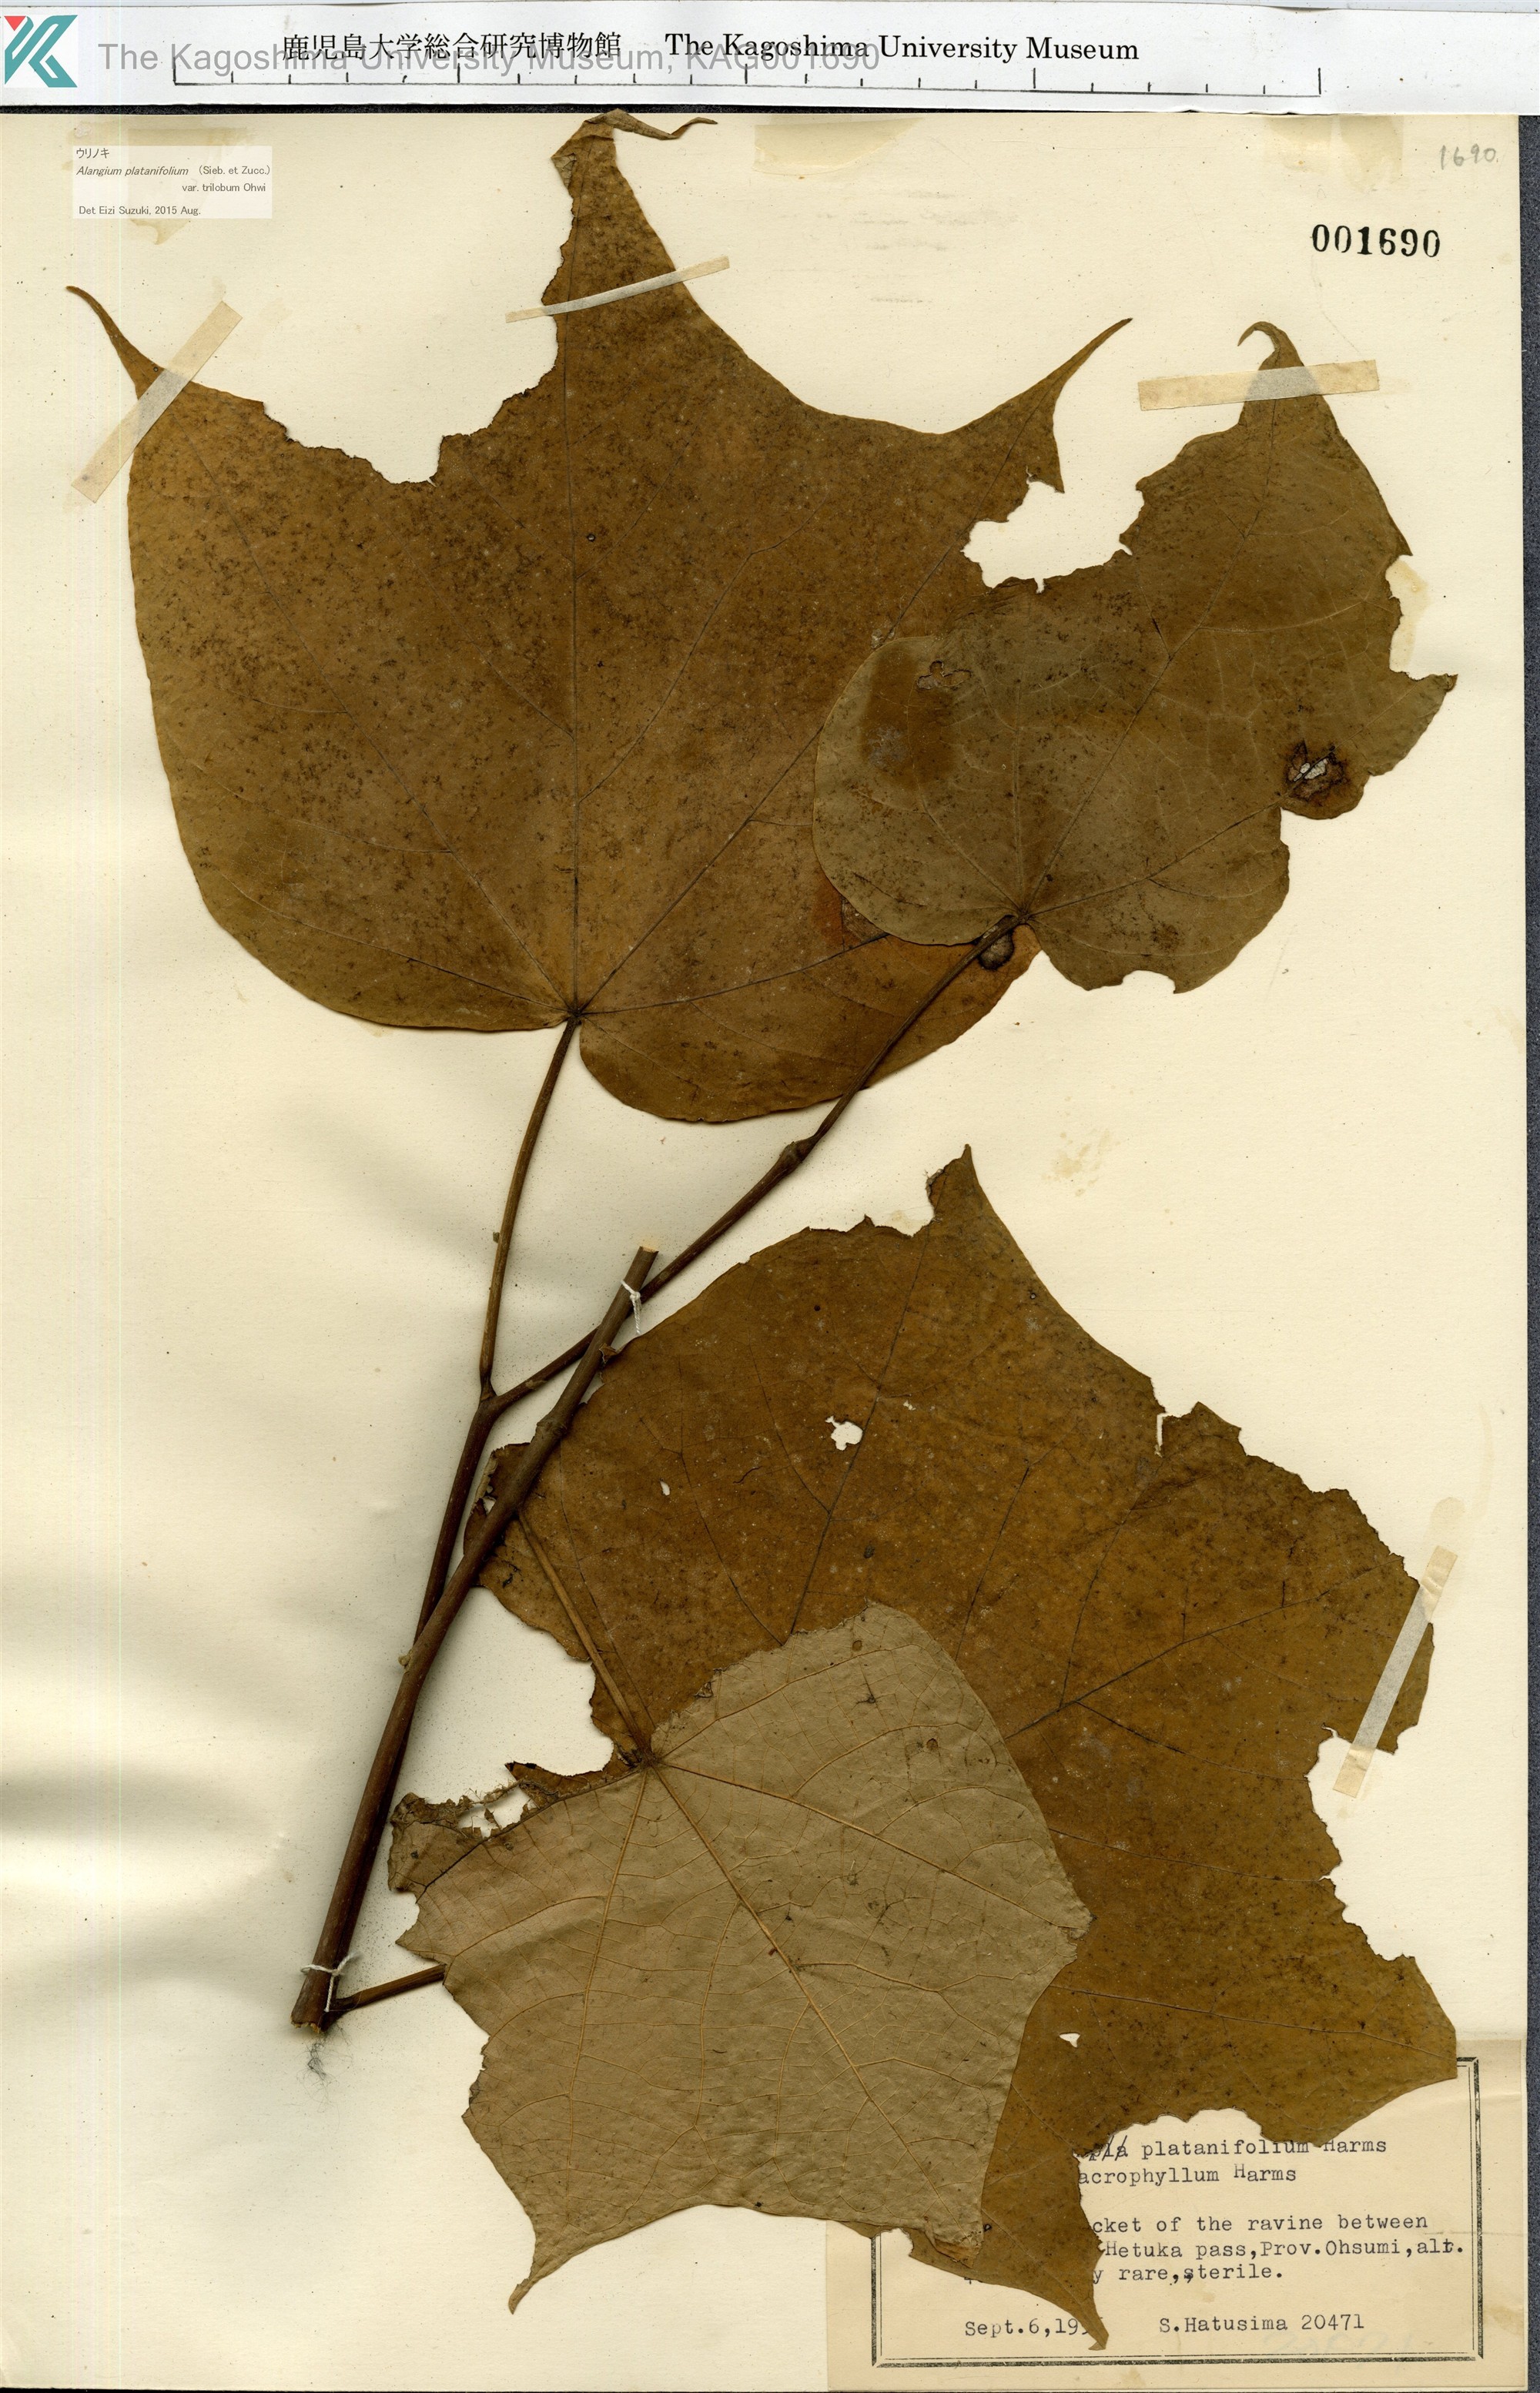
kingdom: Plantae
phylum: Tracheophyta
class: Magnoliopsida
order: Cornales
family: Cornaceae
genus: Alangium
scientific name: Alangium platanifolium
